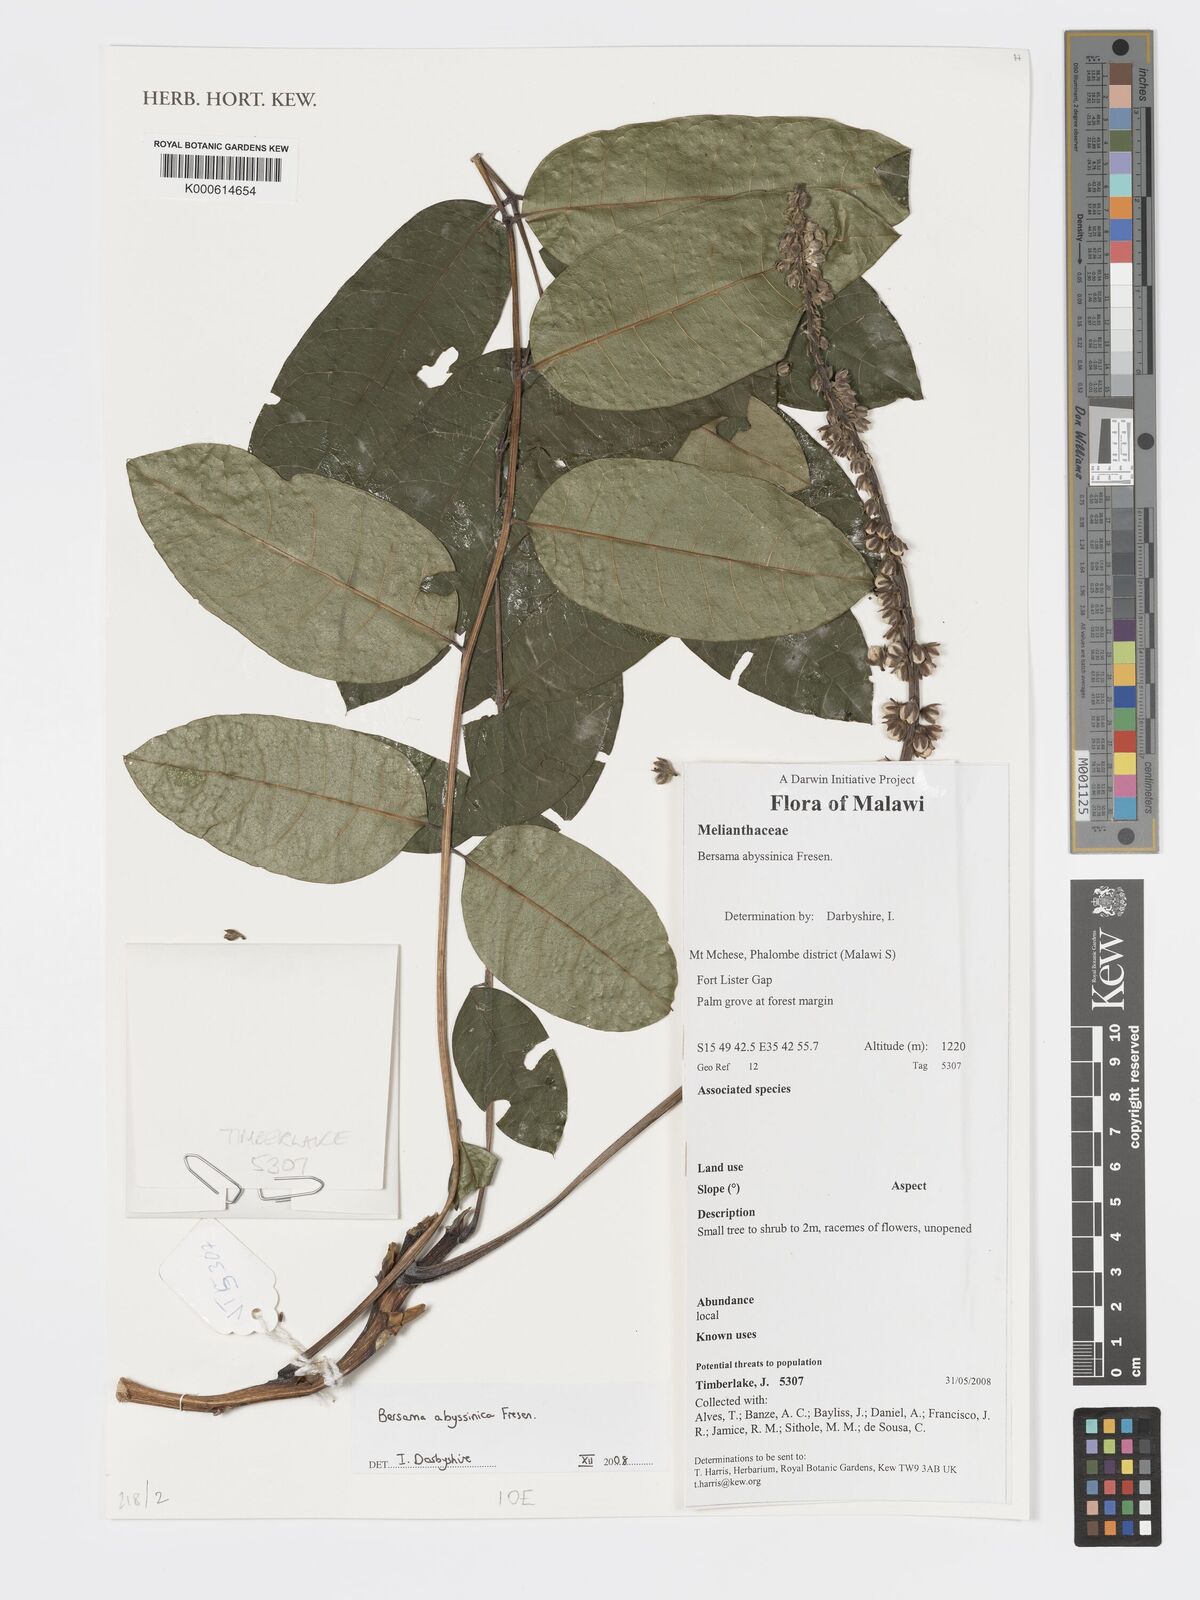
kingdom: Plantae
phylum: Tracheophyta
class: Magnoliopsida
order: Geraniales
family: Melianthaceae
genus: Bersama
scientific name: Bersama abyssinica
